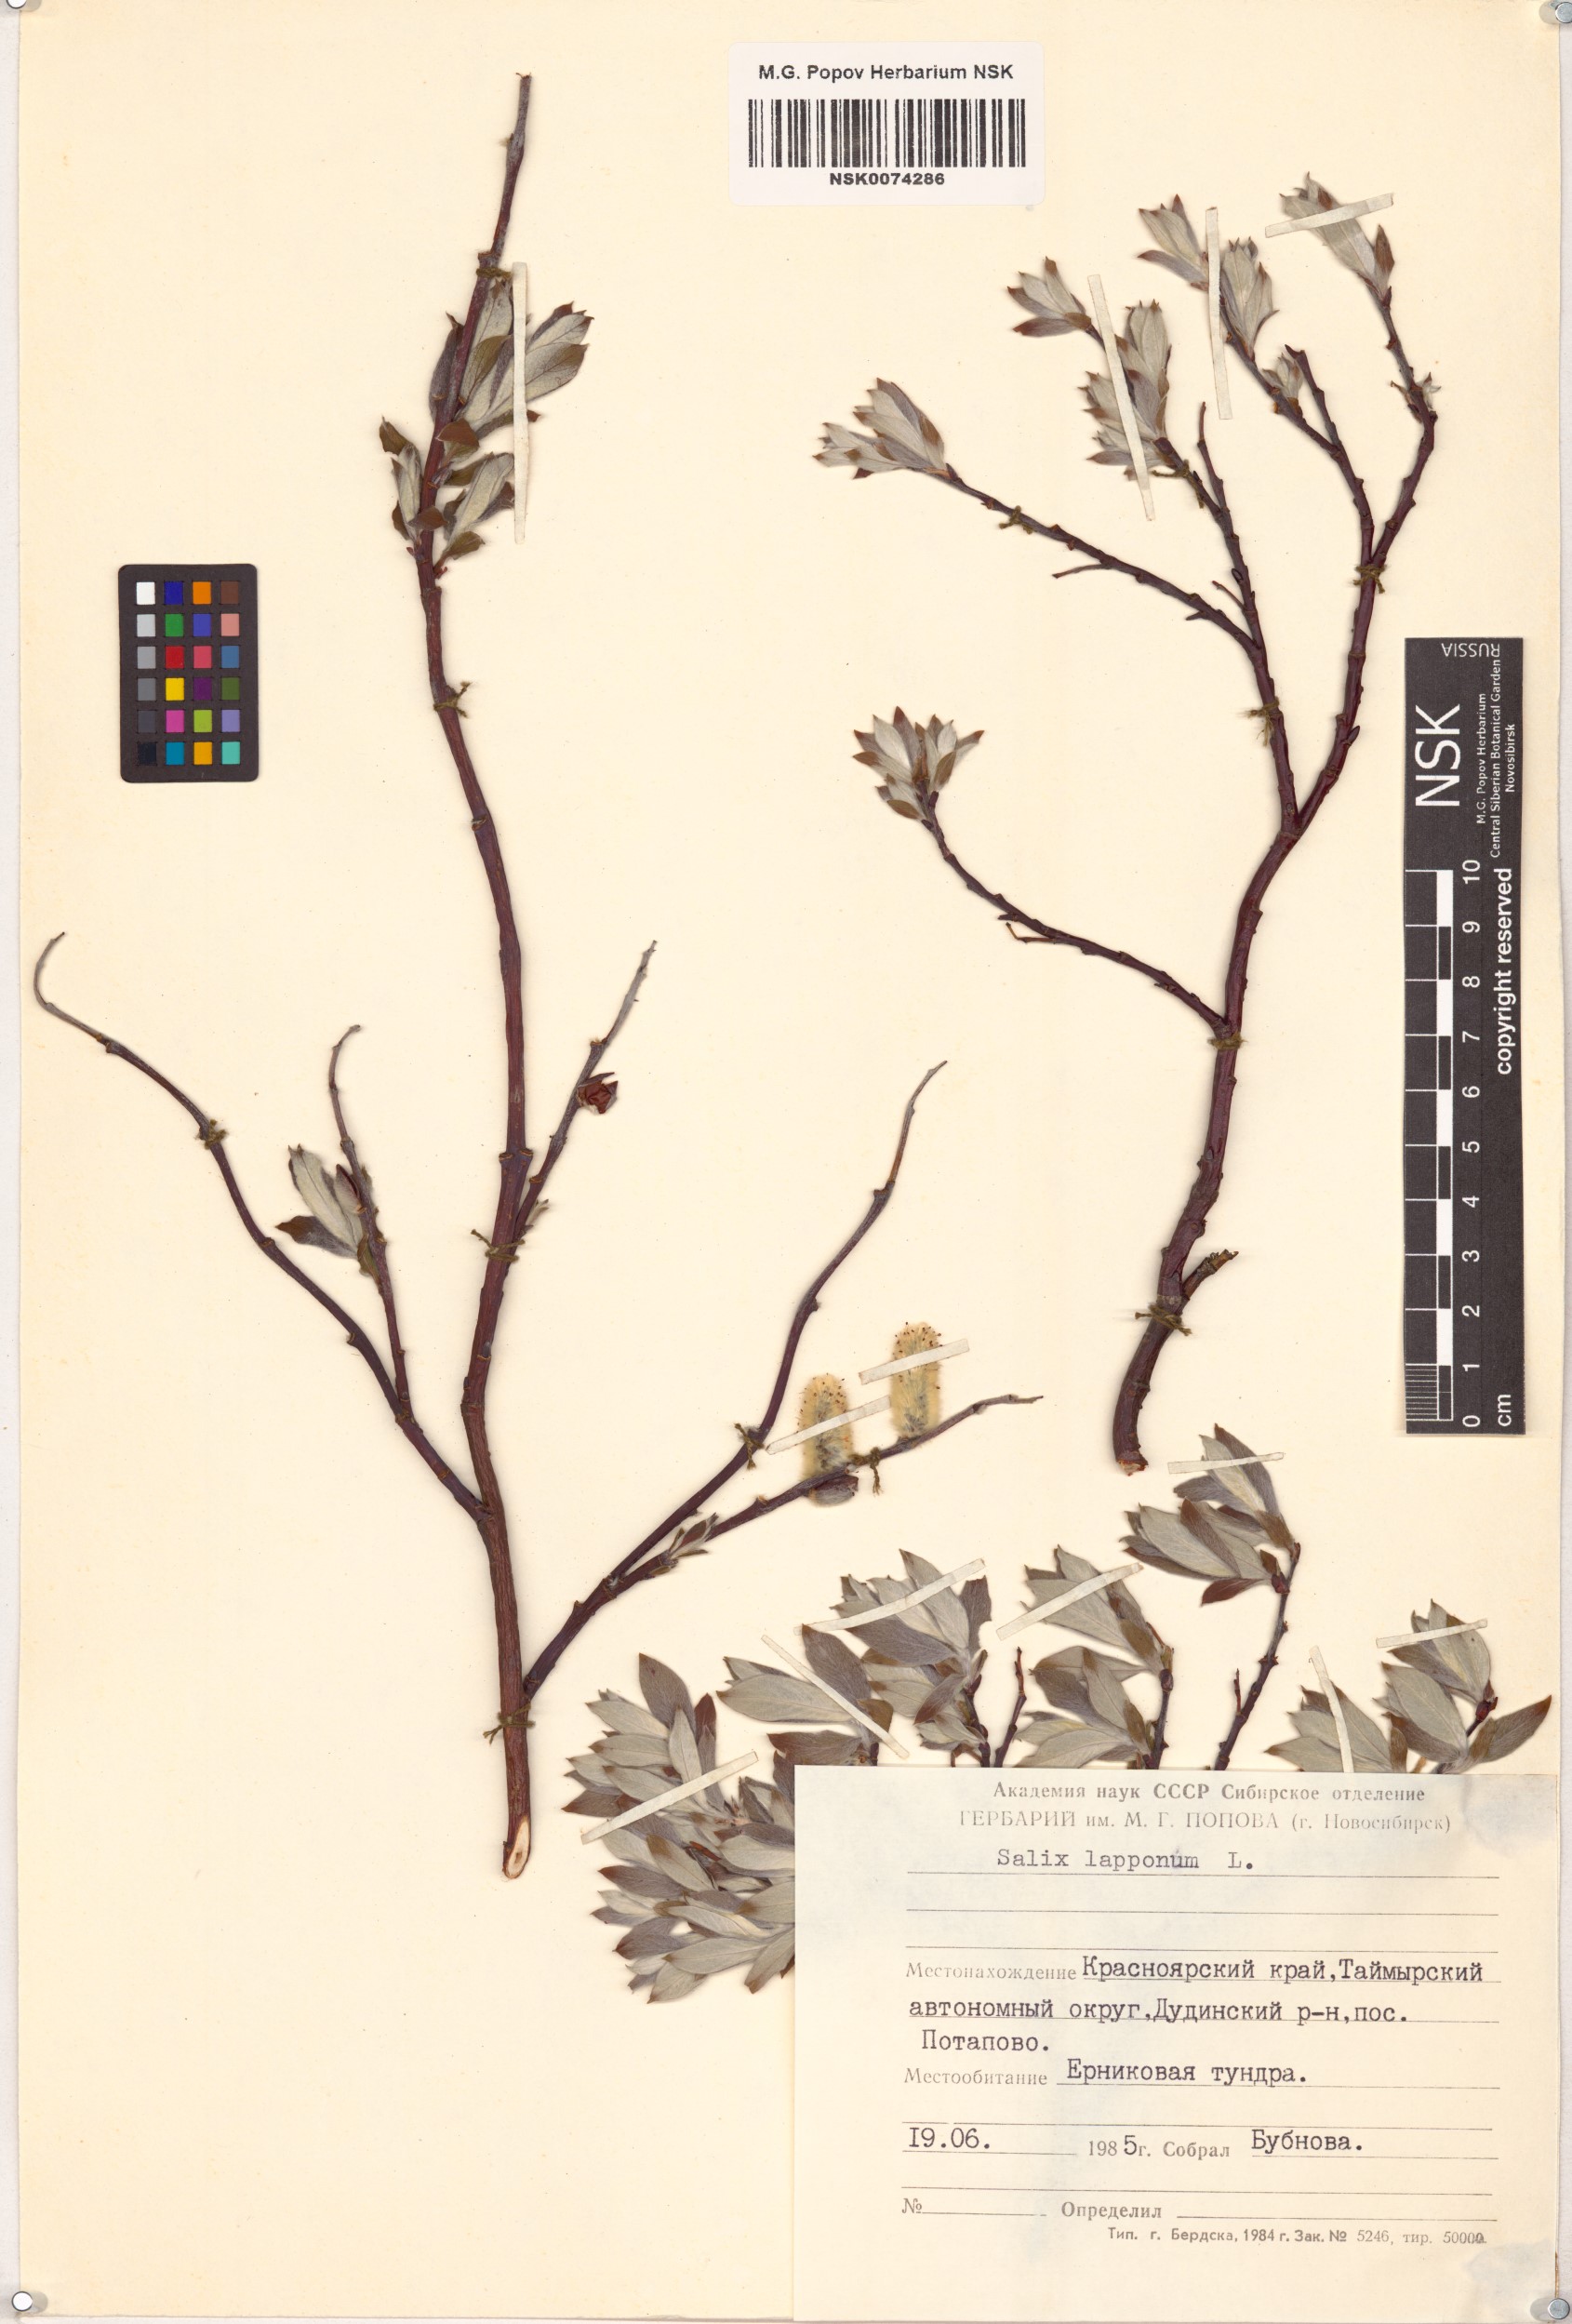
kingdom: Plantae
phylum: Tracheophyta
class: Magnoliopsida
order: Malpighiales
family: Salicaceae
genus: Salix
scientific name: Salix lapponum
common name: Downy willow
